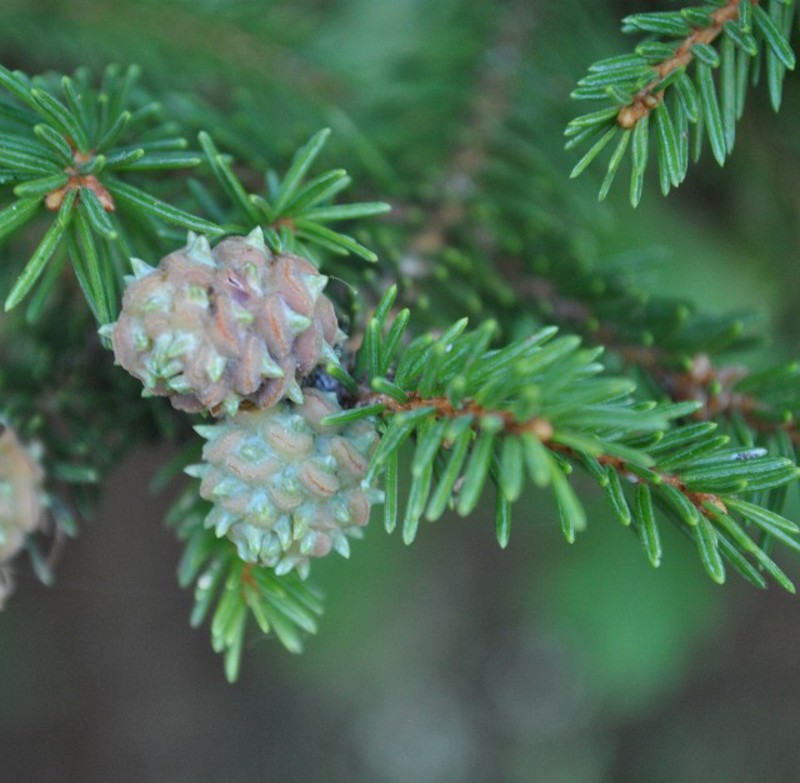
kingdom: Animalia
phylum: Arthropoda
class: Insecta
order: Hemiptera
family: Adelgidae
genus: Adelges
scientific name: Adelges viridis
